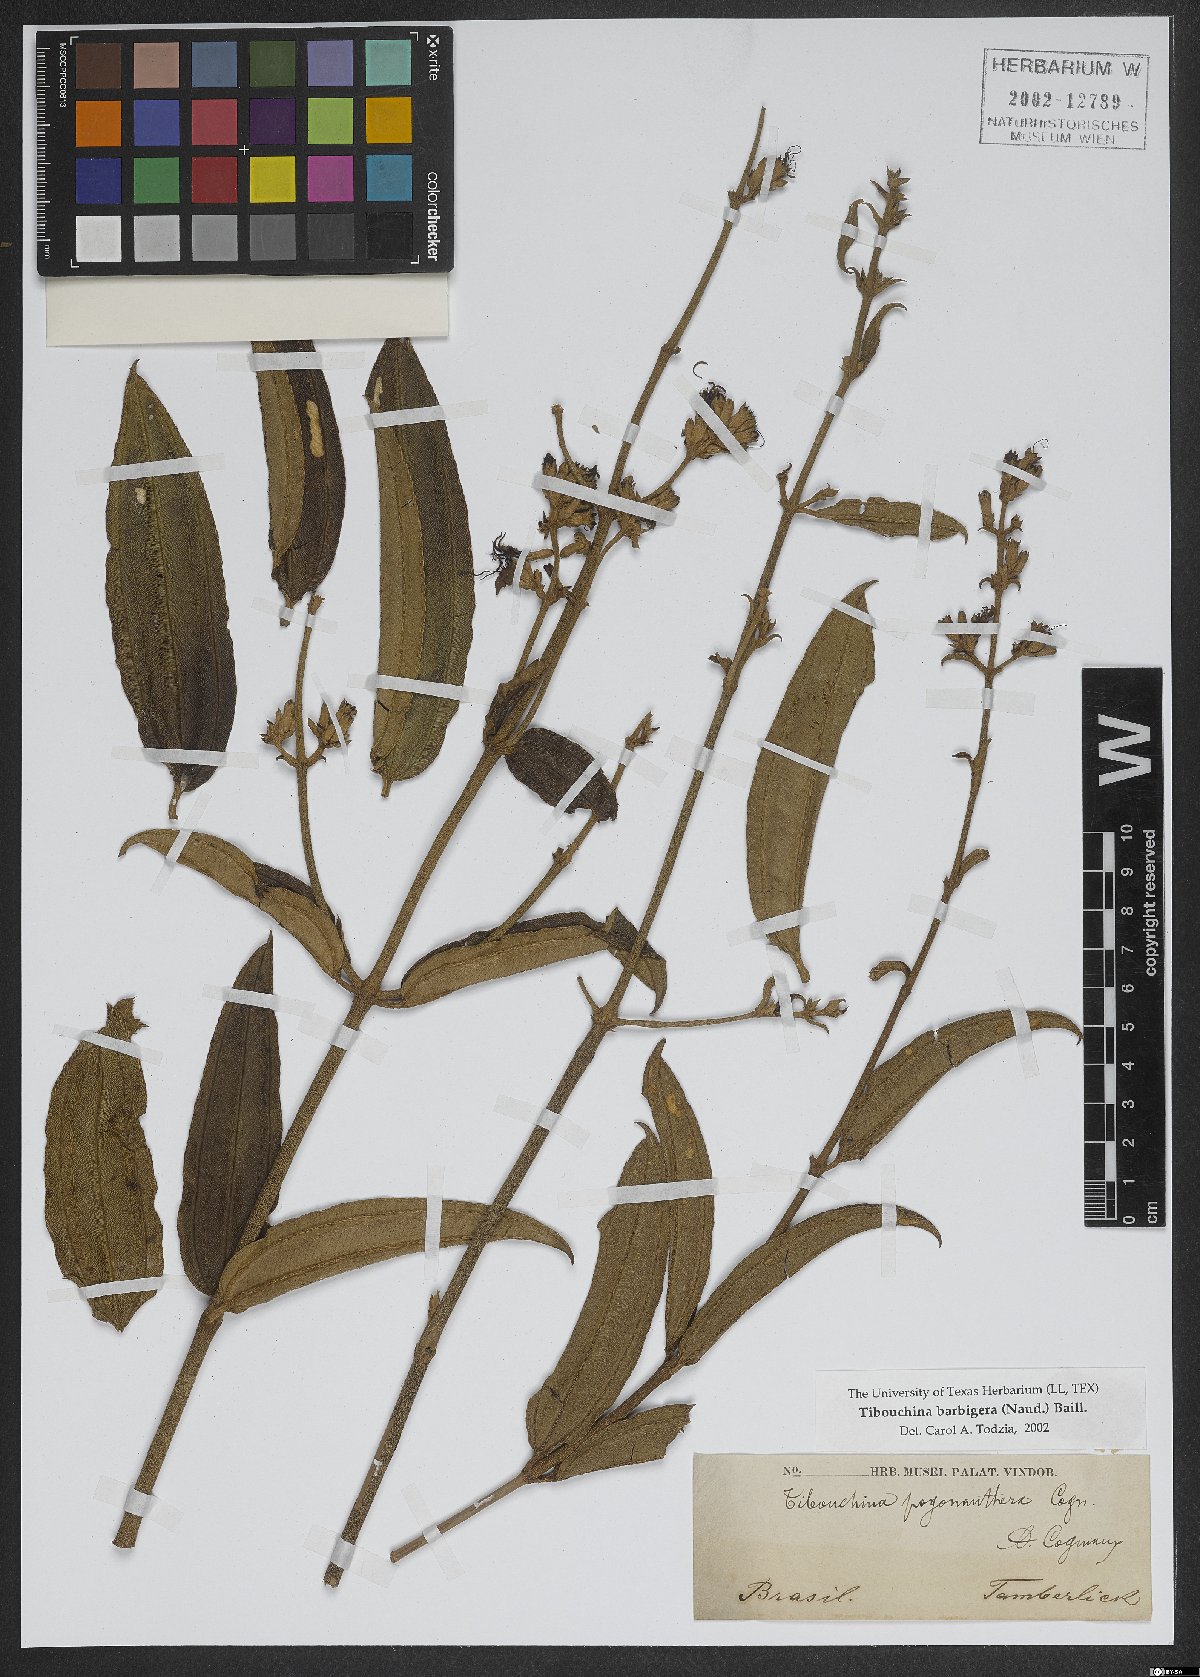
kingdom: Plantae
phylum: Tracheophyta
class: Magnoliopsida
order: Myrtales
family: Melastomataceae
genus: Pleroma
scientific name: Pleroma pogonantherum
